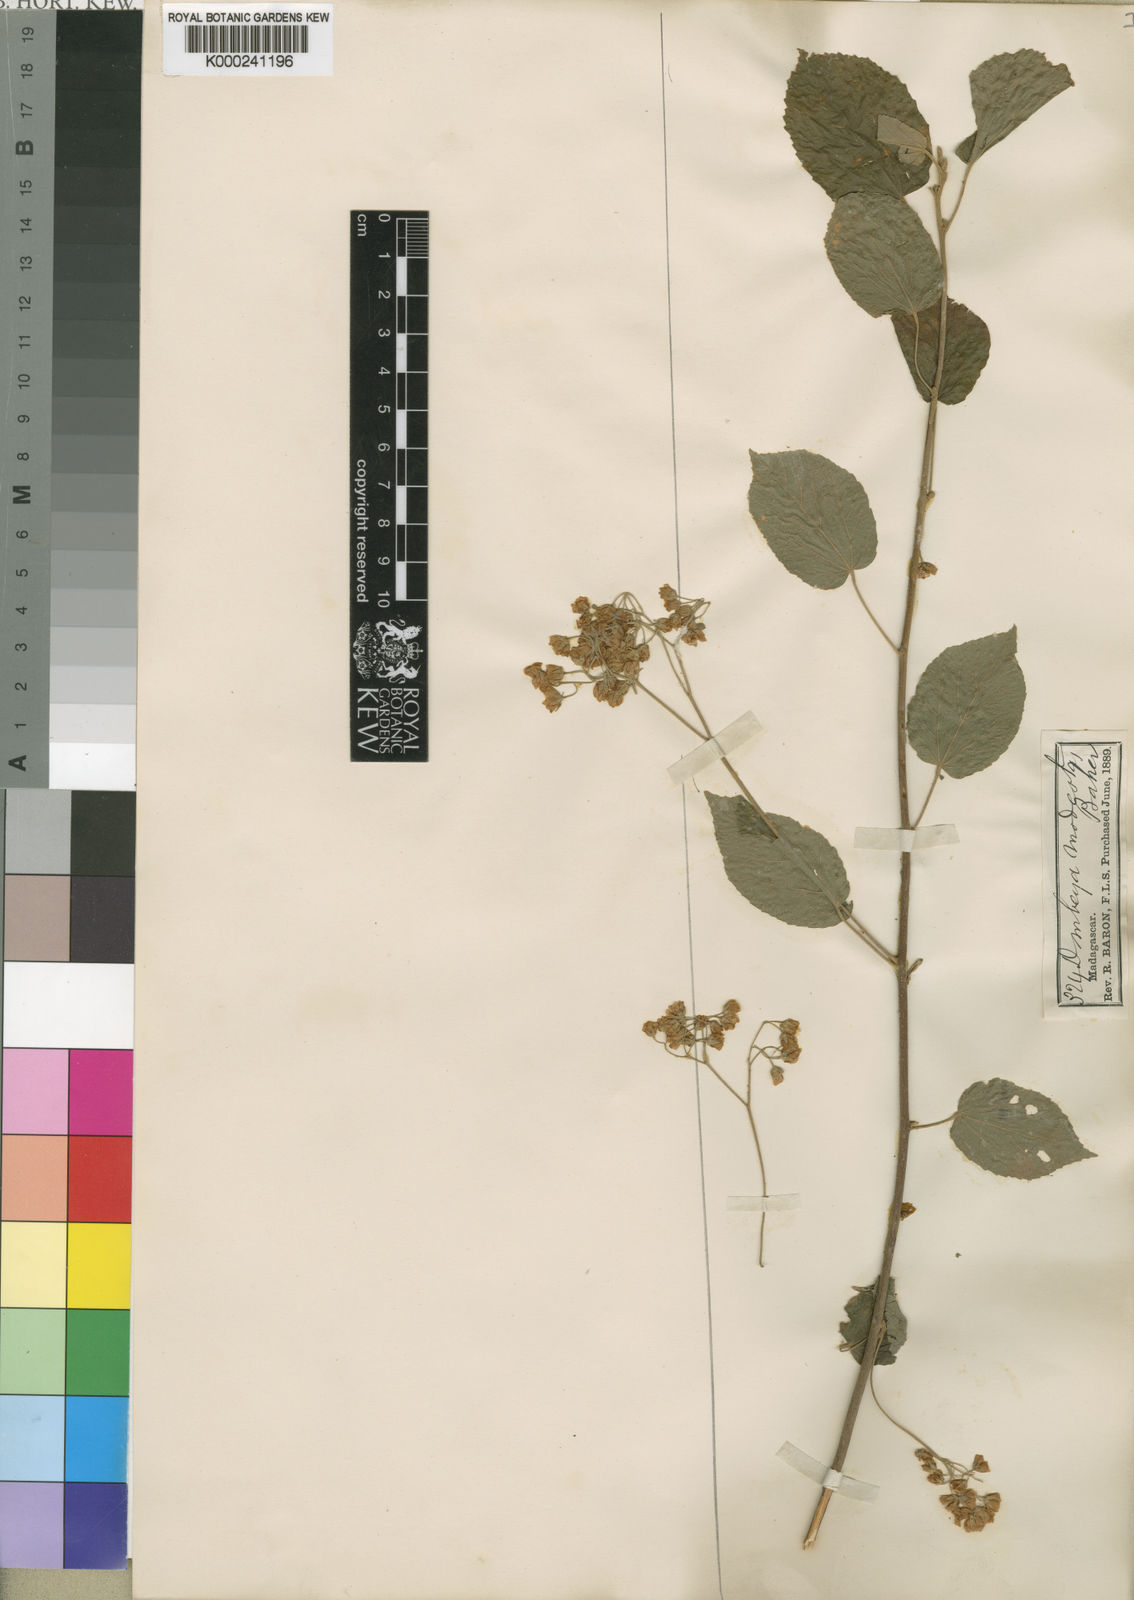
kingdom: Plantae
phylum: Tracheophyta
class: Magnoliopsida
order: Malvales
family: Malvaceae
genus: Dombeya
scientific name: Dombeya modesta
